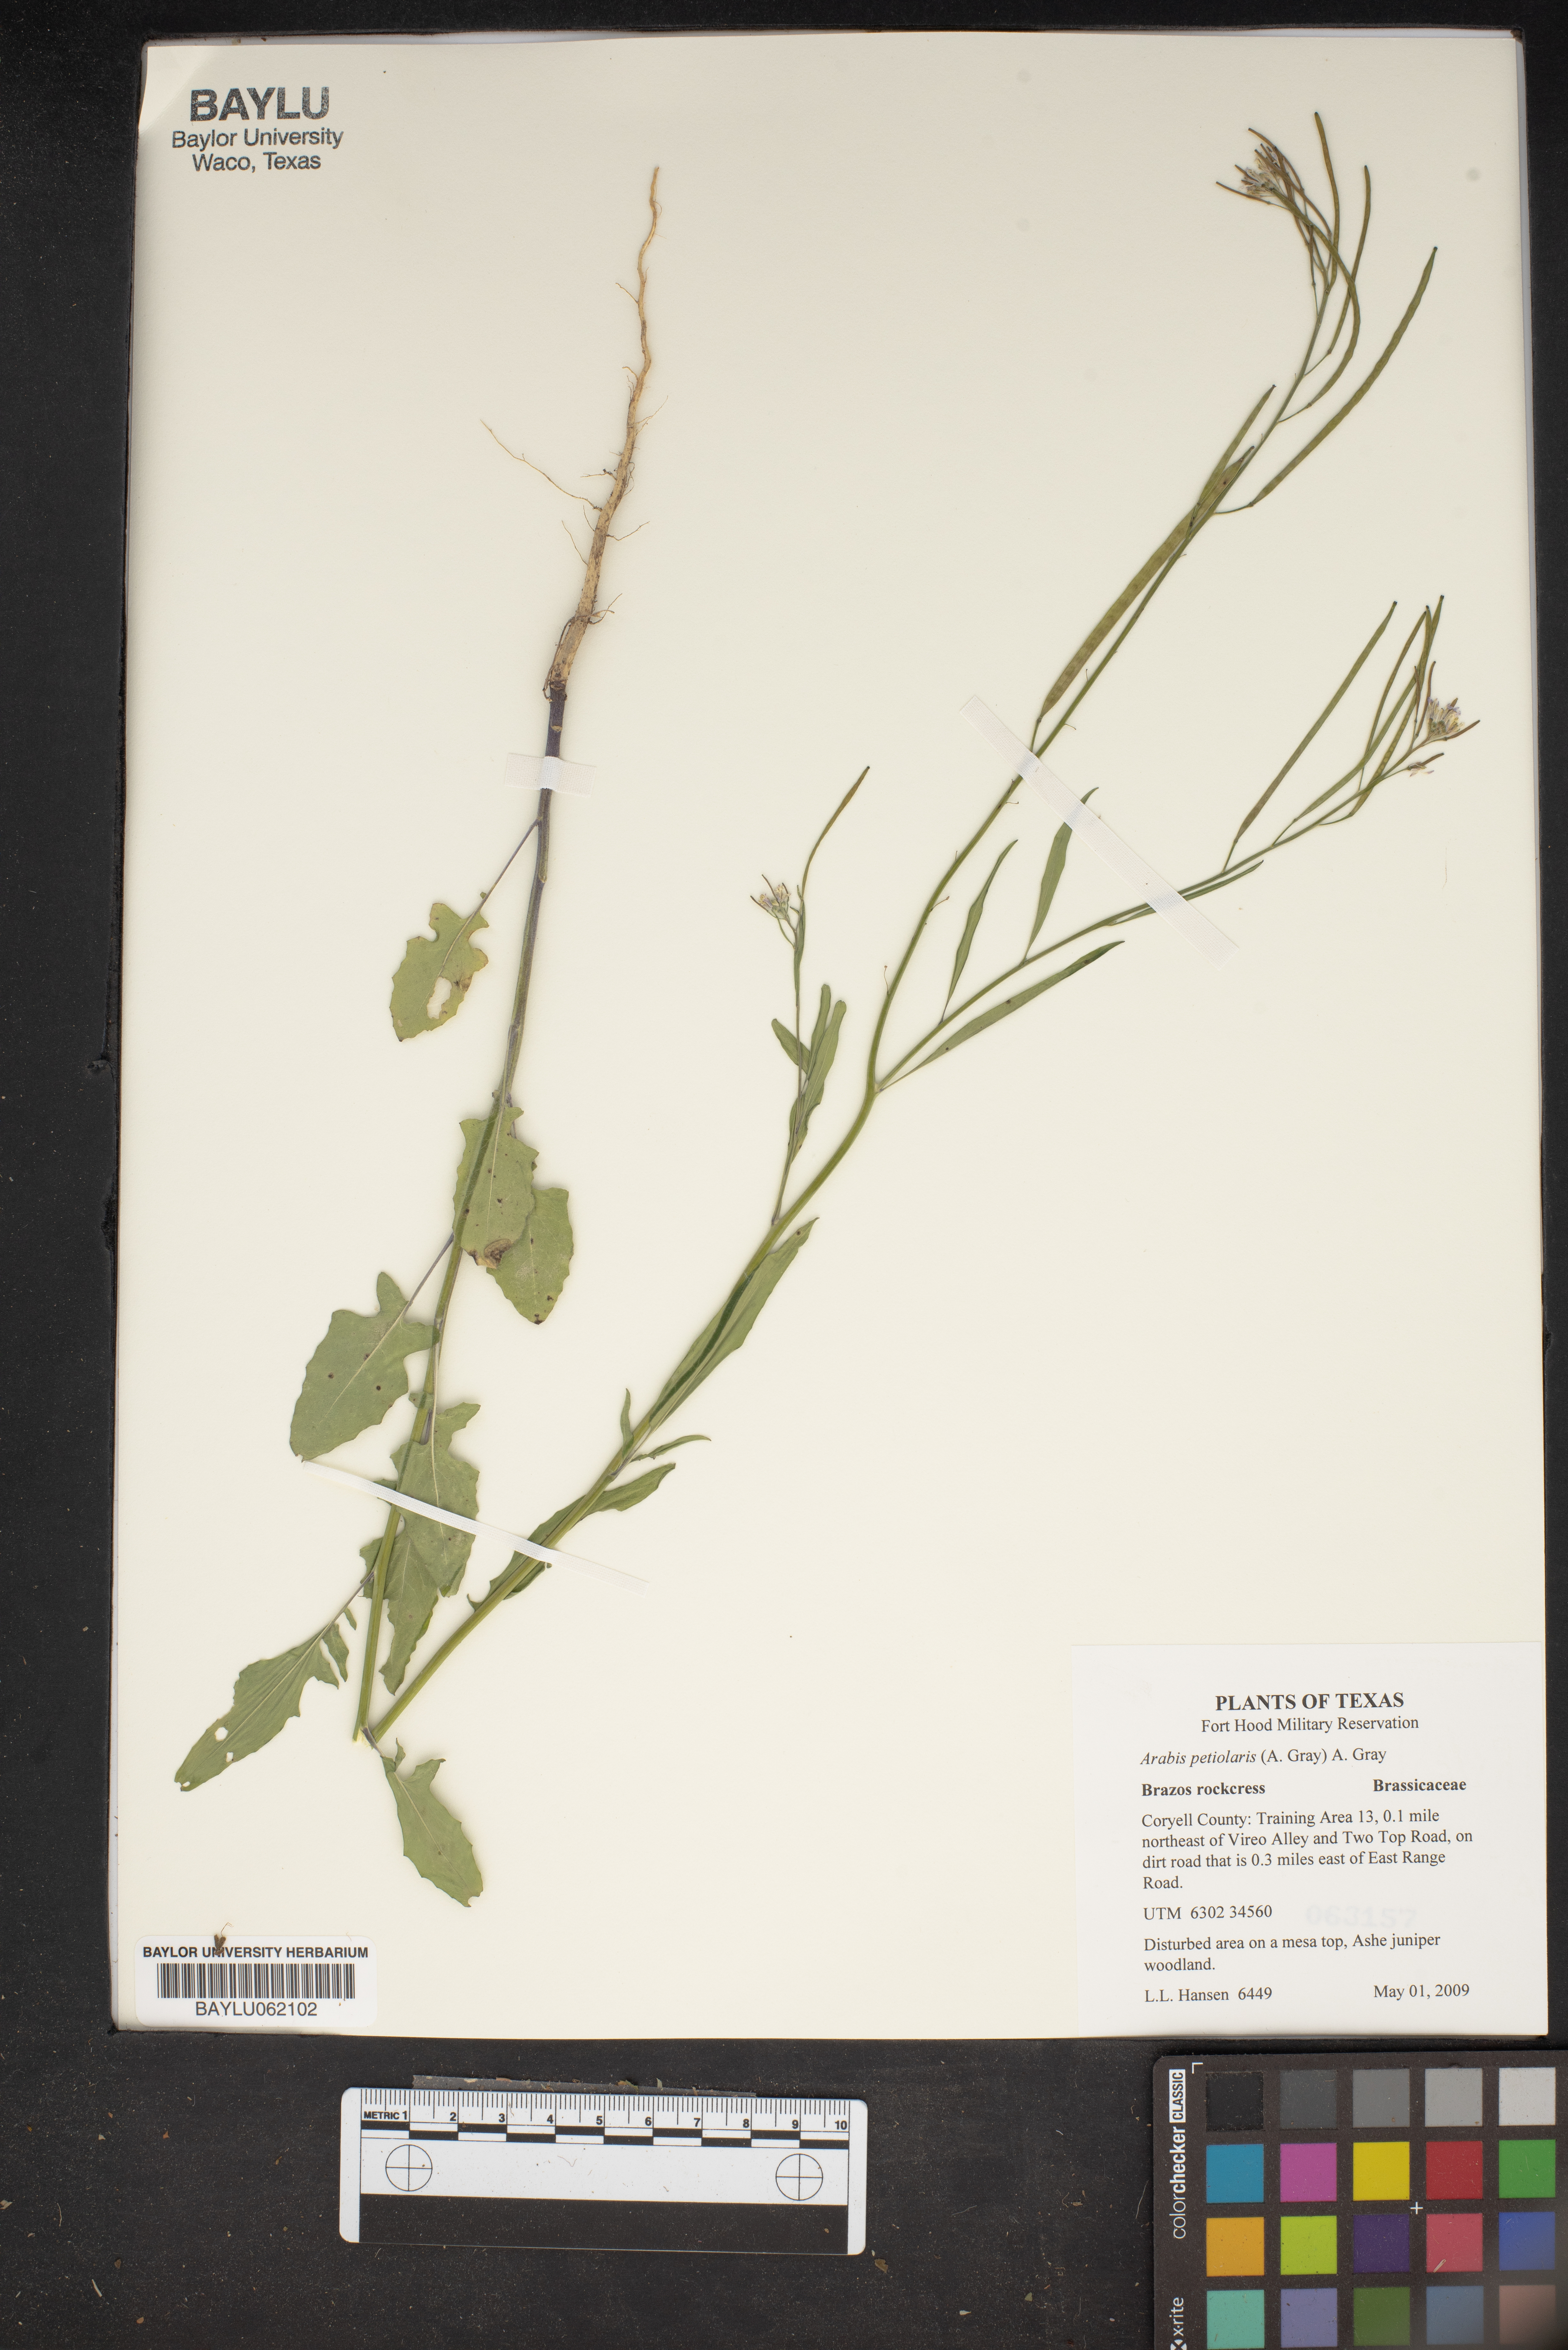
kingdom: Plantae
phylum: Tracheophyta
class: Magnoliopsida
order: Brassicales
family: Brassicaceae
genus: Streptanthus
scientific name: Streptanthus petiolaris
